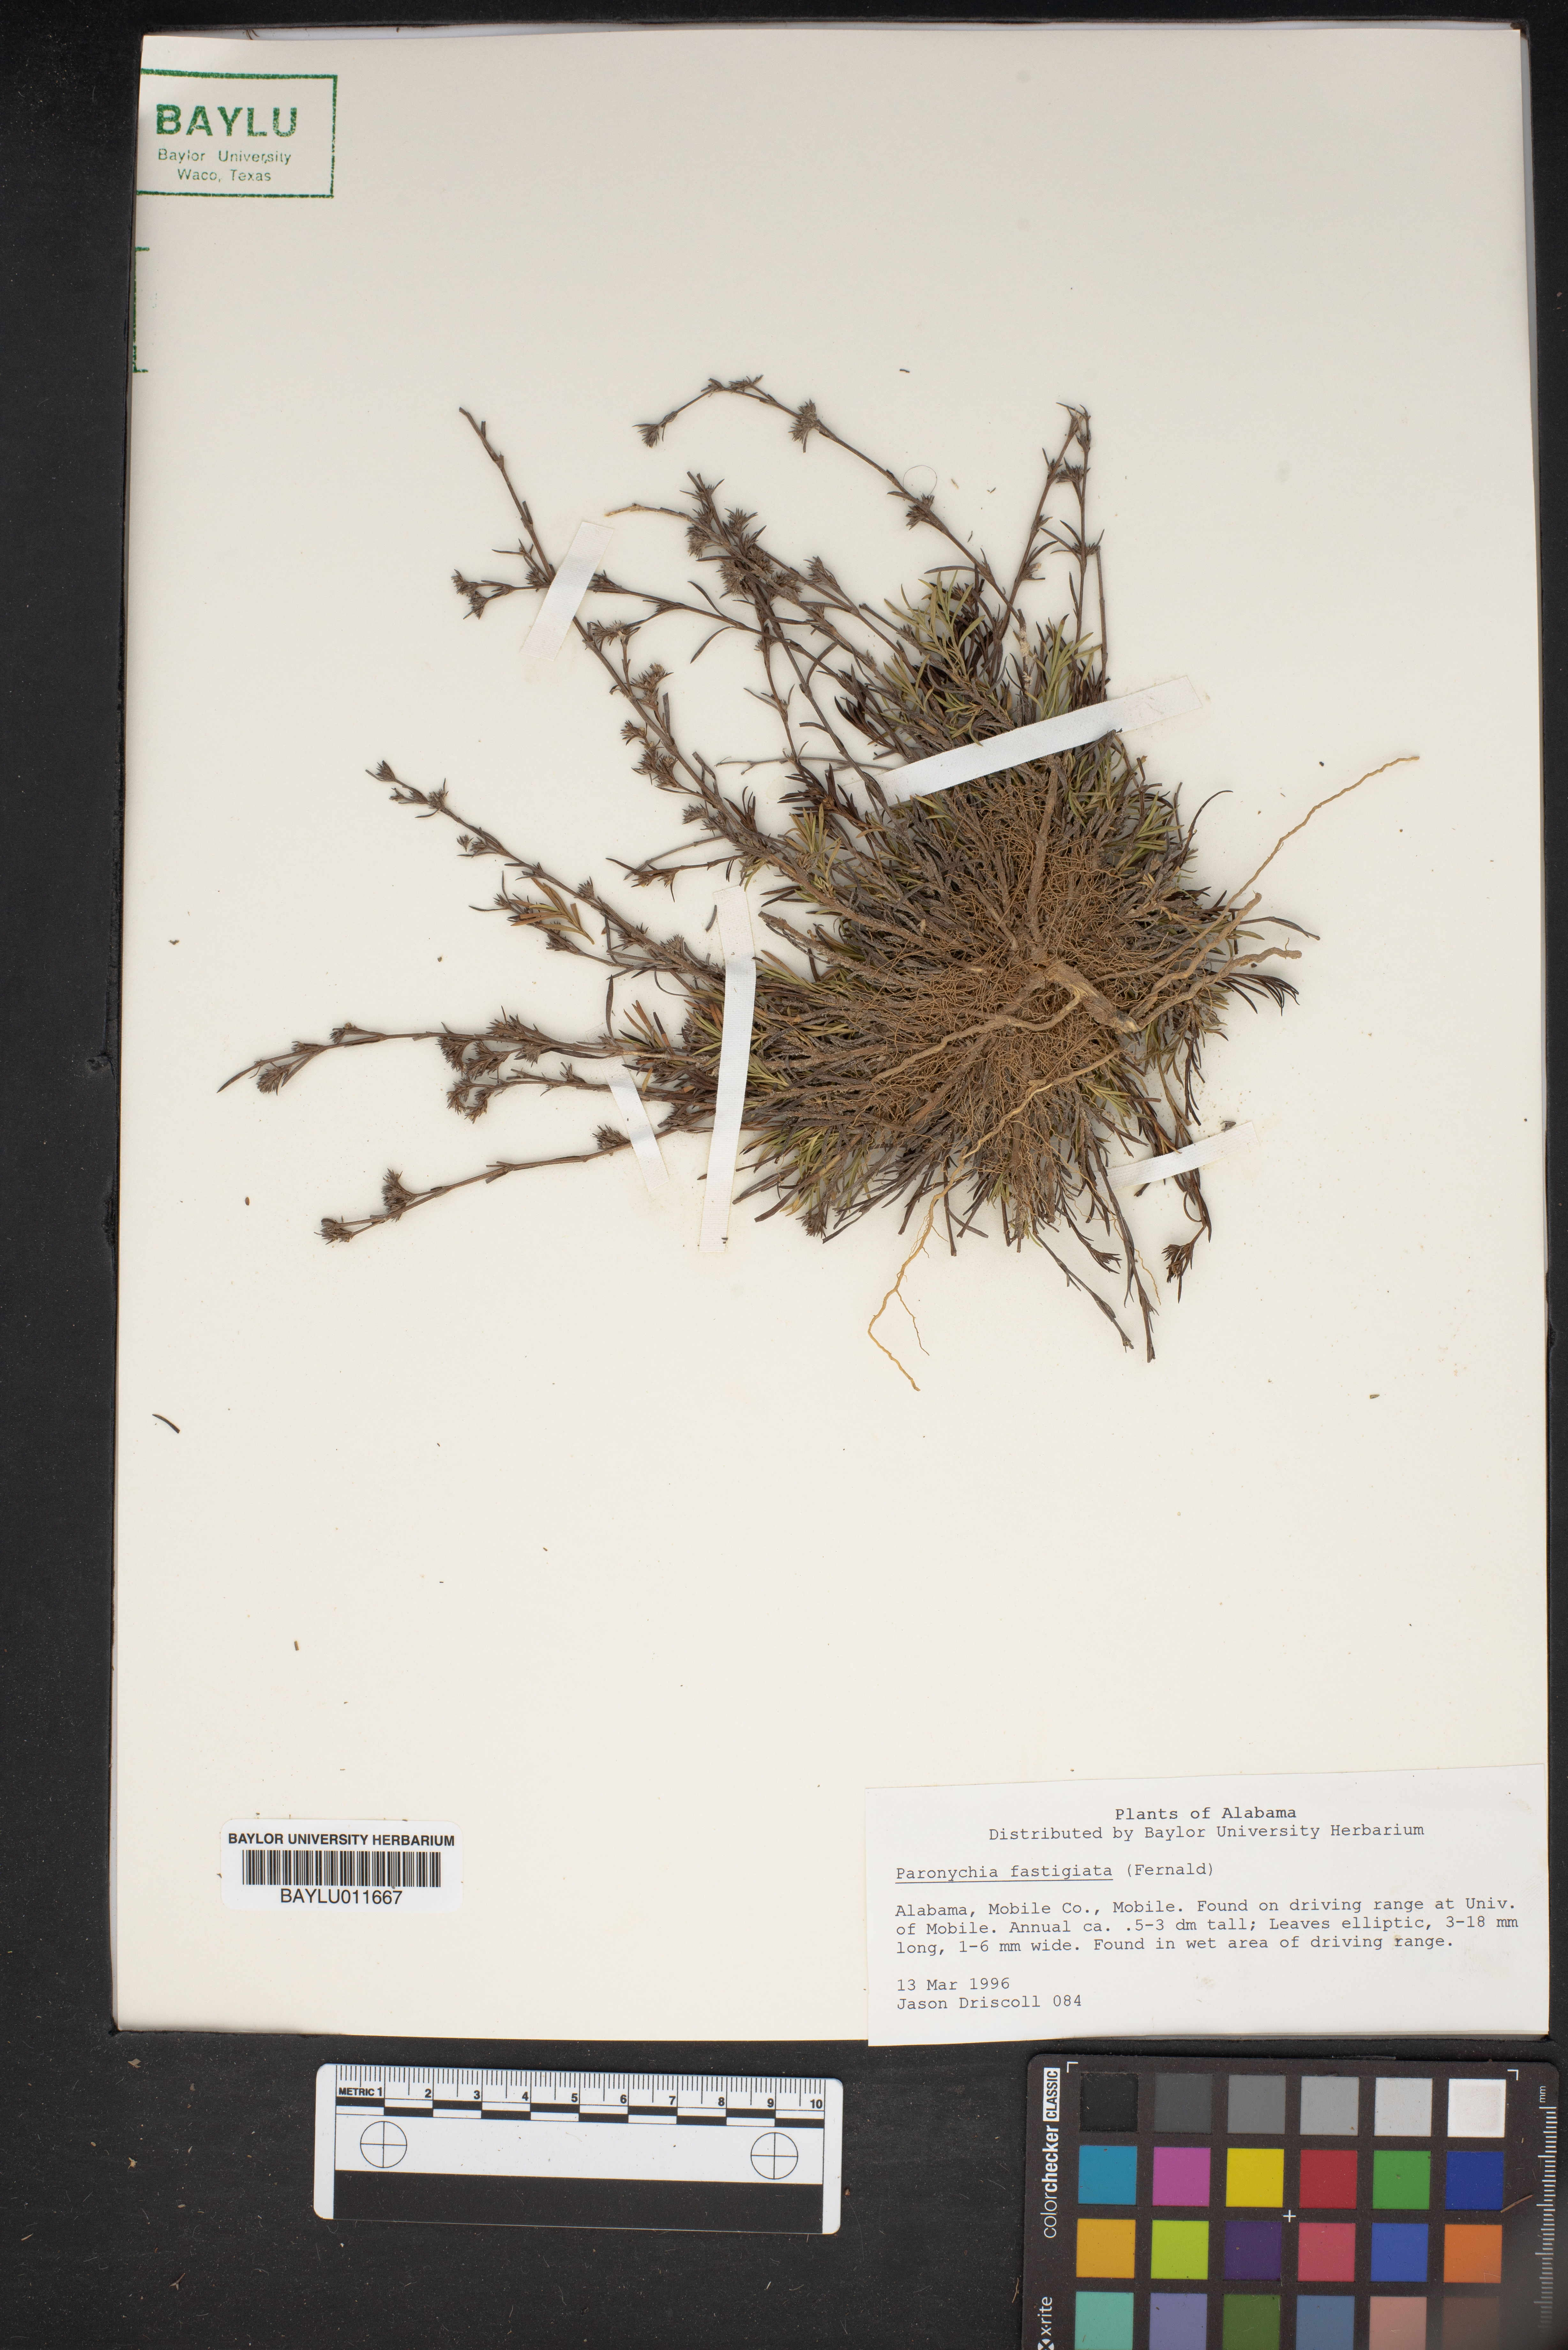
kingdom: Plantae
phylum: Tracheophyta
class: Magnoliopsida
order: Caryophyllales
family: Caryophyllaceae
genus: Paronychia
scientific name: Paronychia fastigiata
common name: Branching forked whitlow-wort
